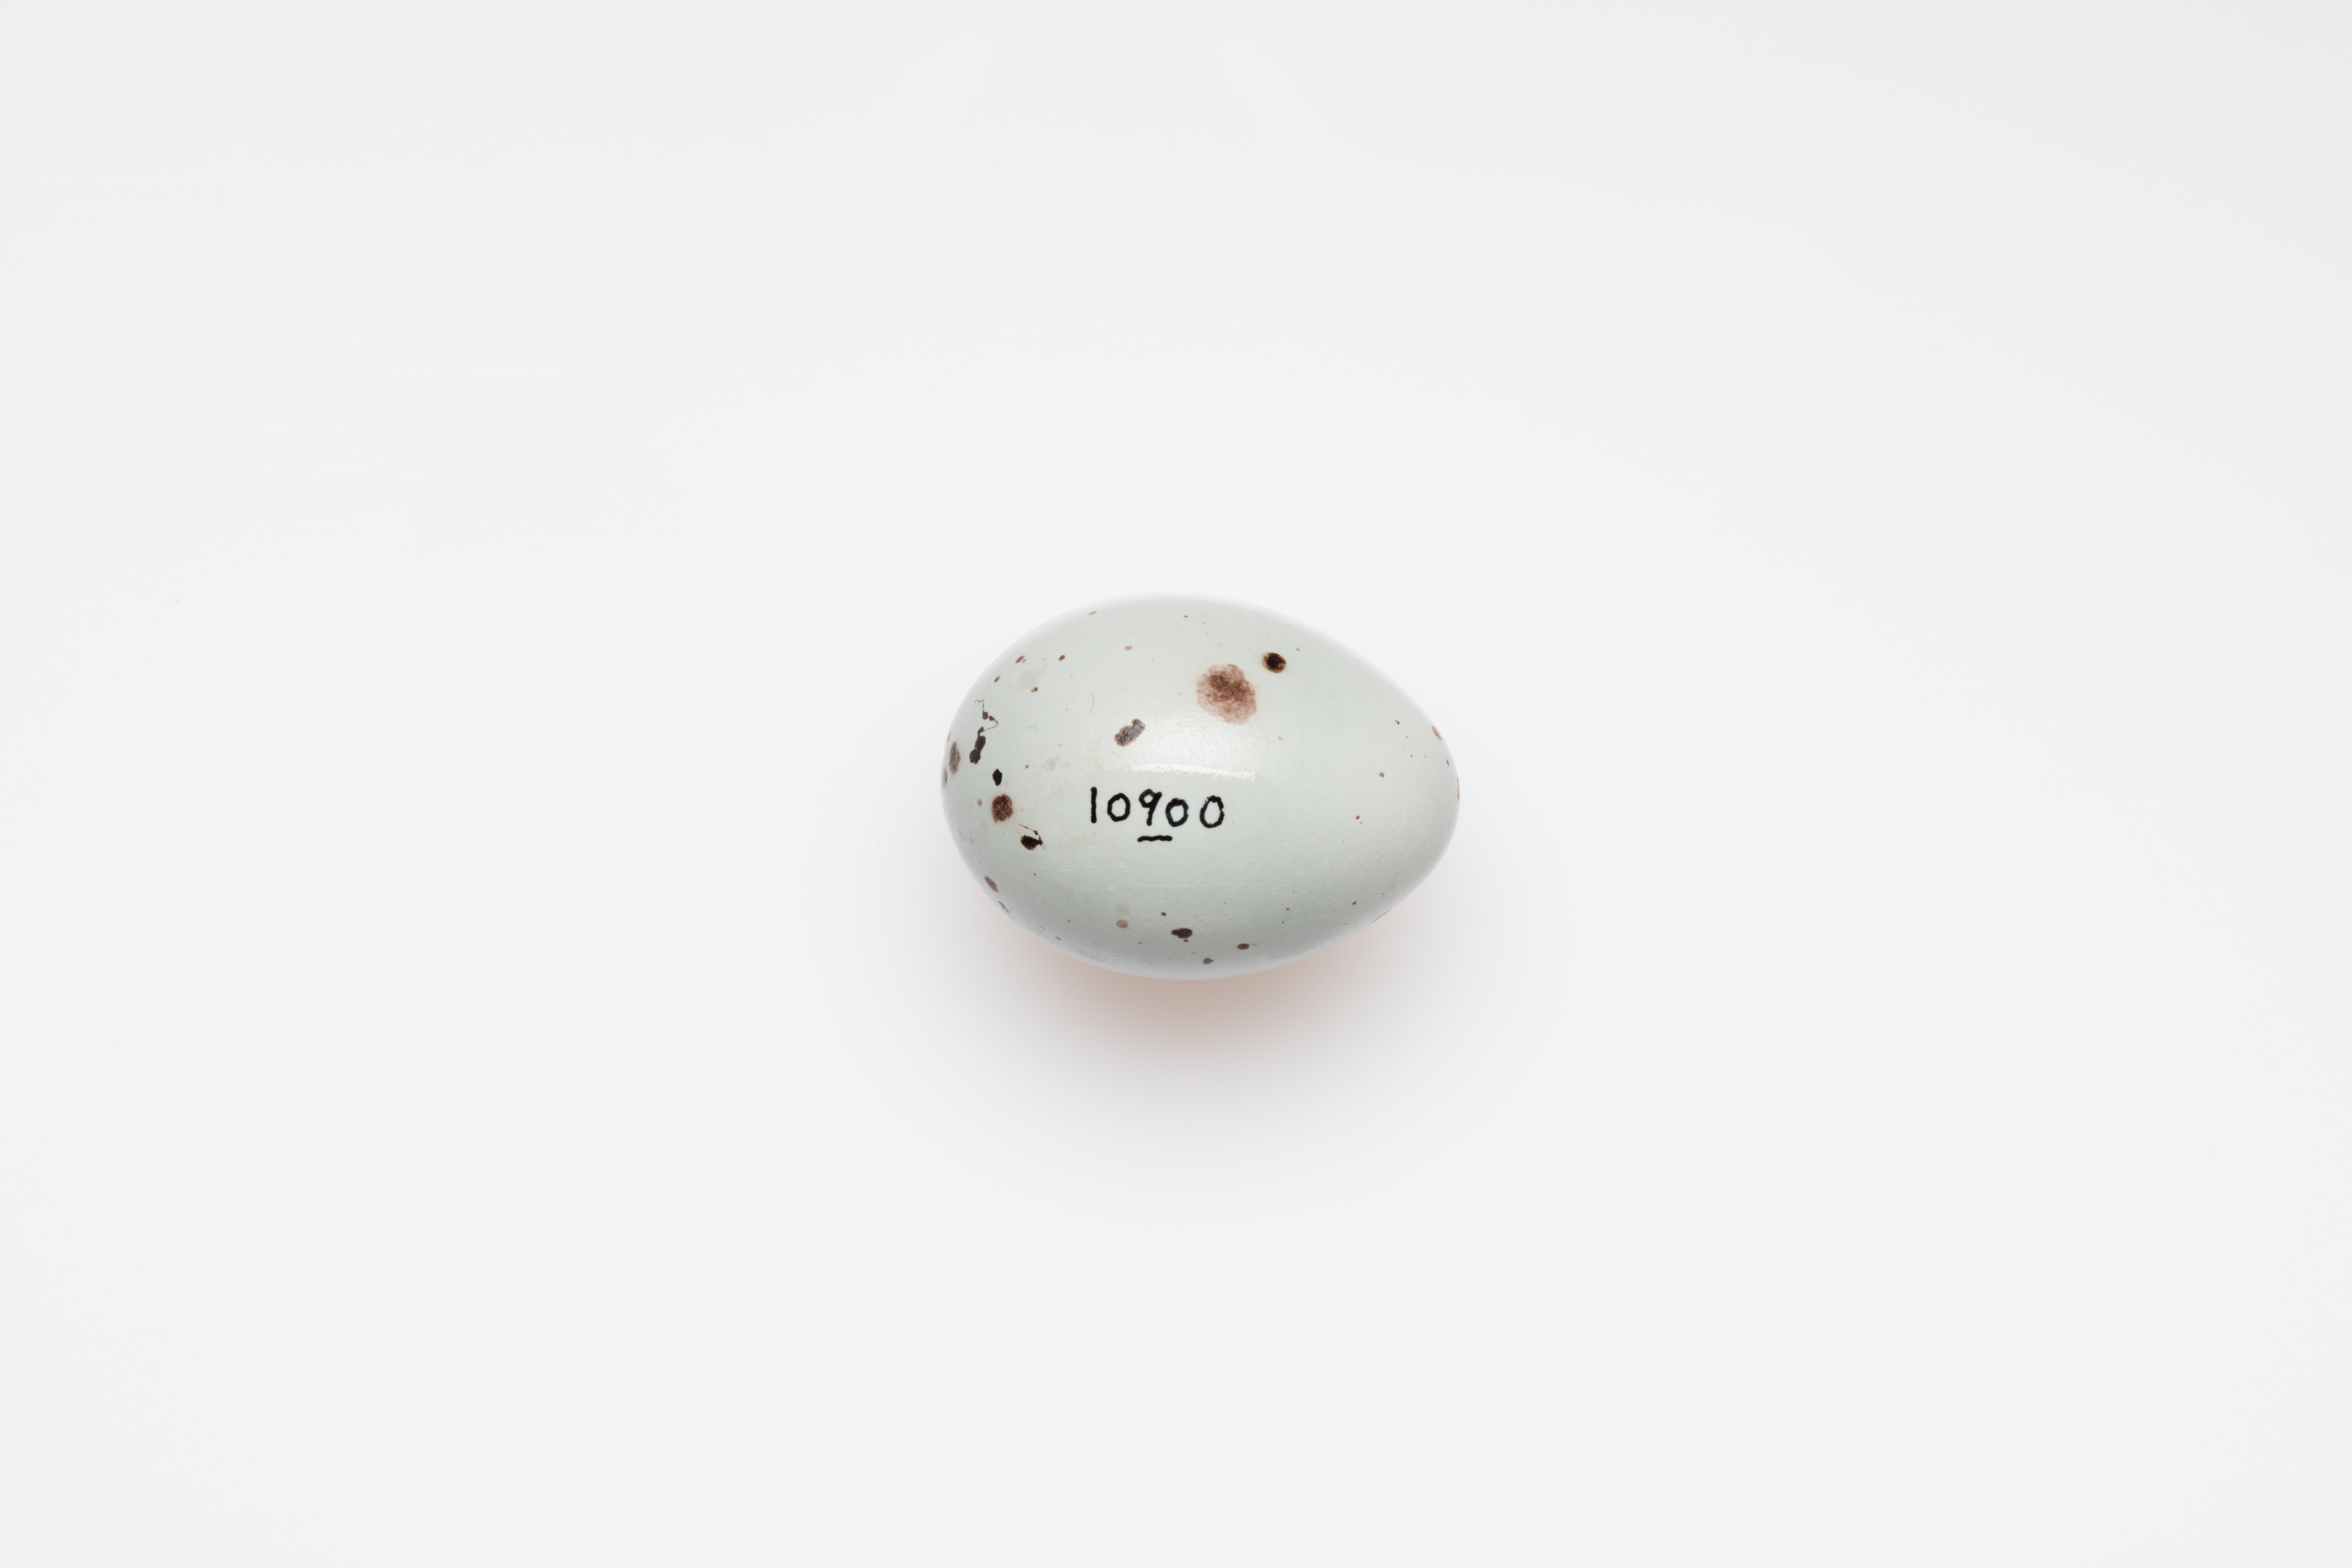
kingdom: Animalia
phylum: Chordata
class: Aves
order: Passeriformes
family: Turdidae
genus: Turdus
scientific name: Turdus philomelos
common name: Song thrush
